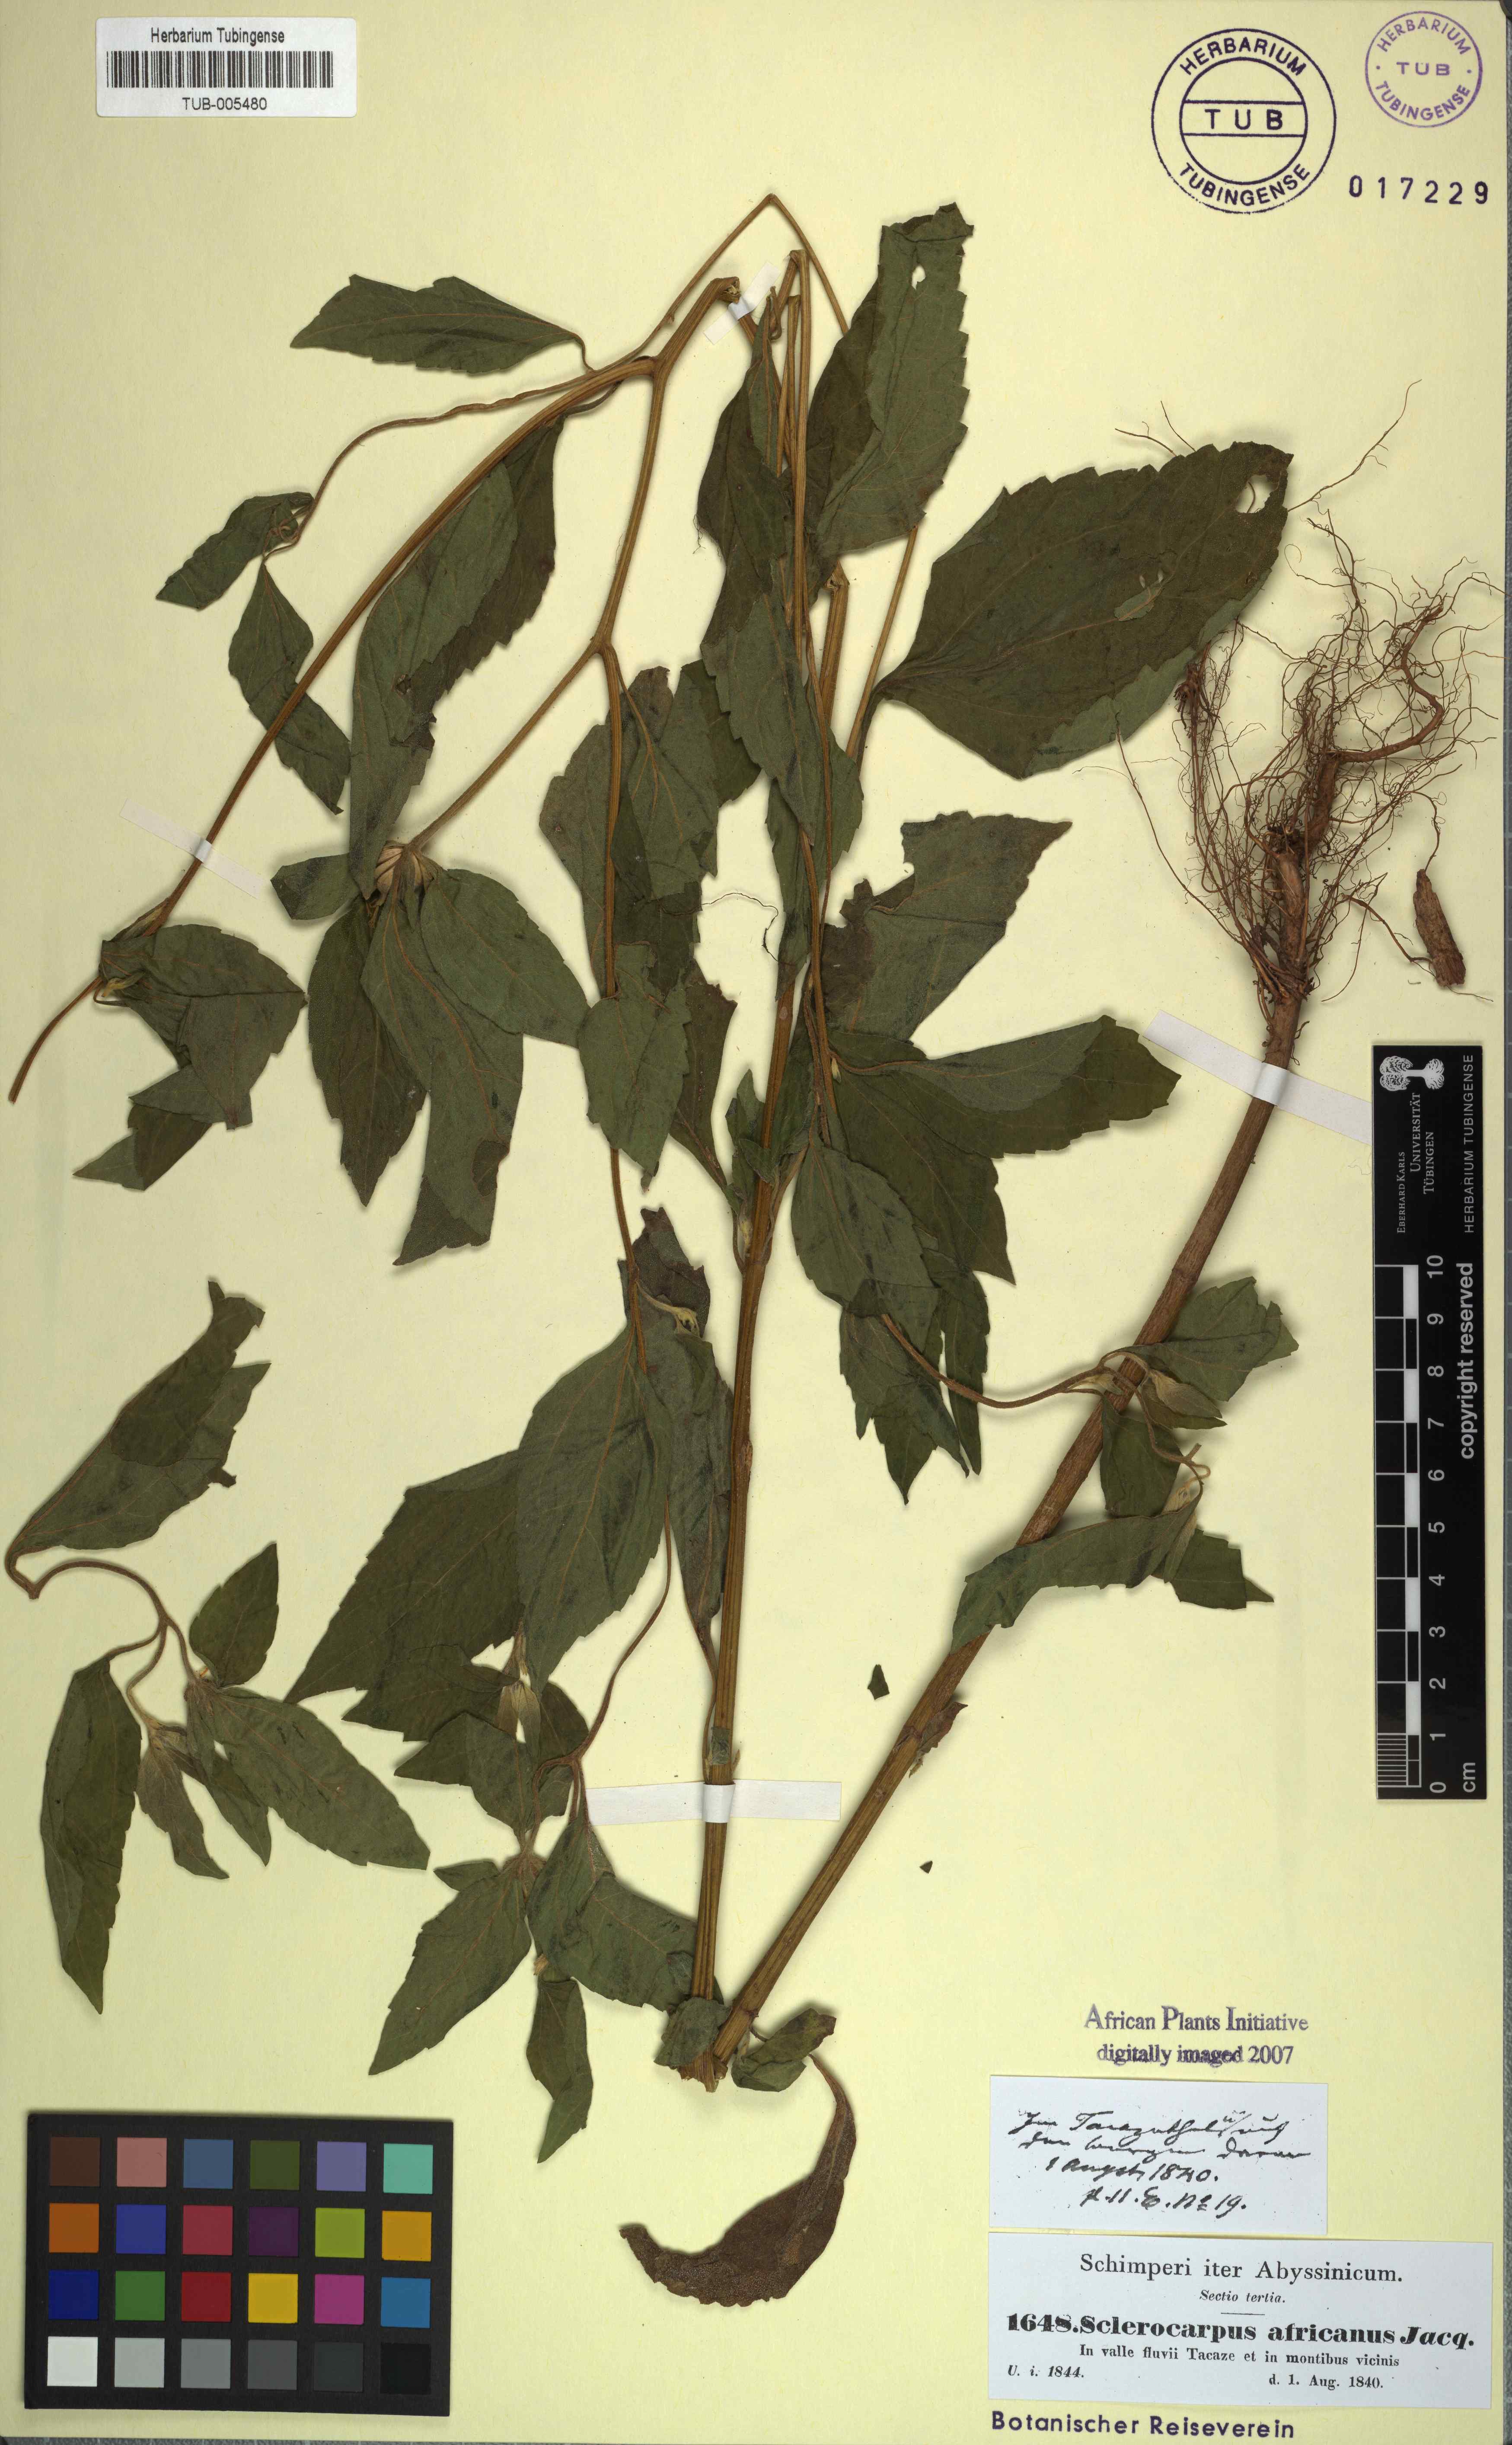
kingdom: Plantae
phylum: Tracheophyta
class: Magnoliopsida
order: Asterales
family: Asteraceae
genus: Sclerocarpus
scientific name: Sclerocarpus africanus
